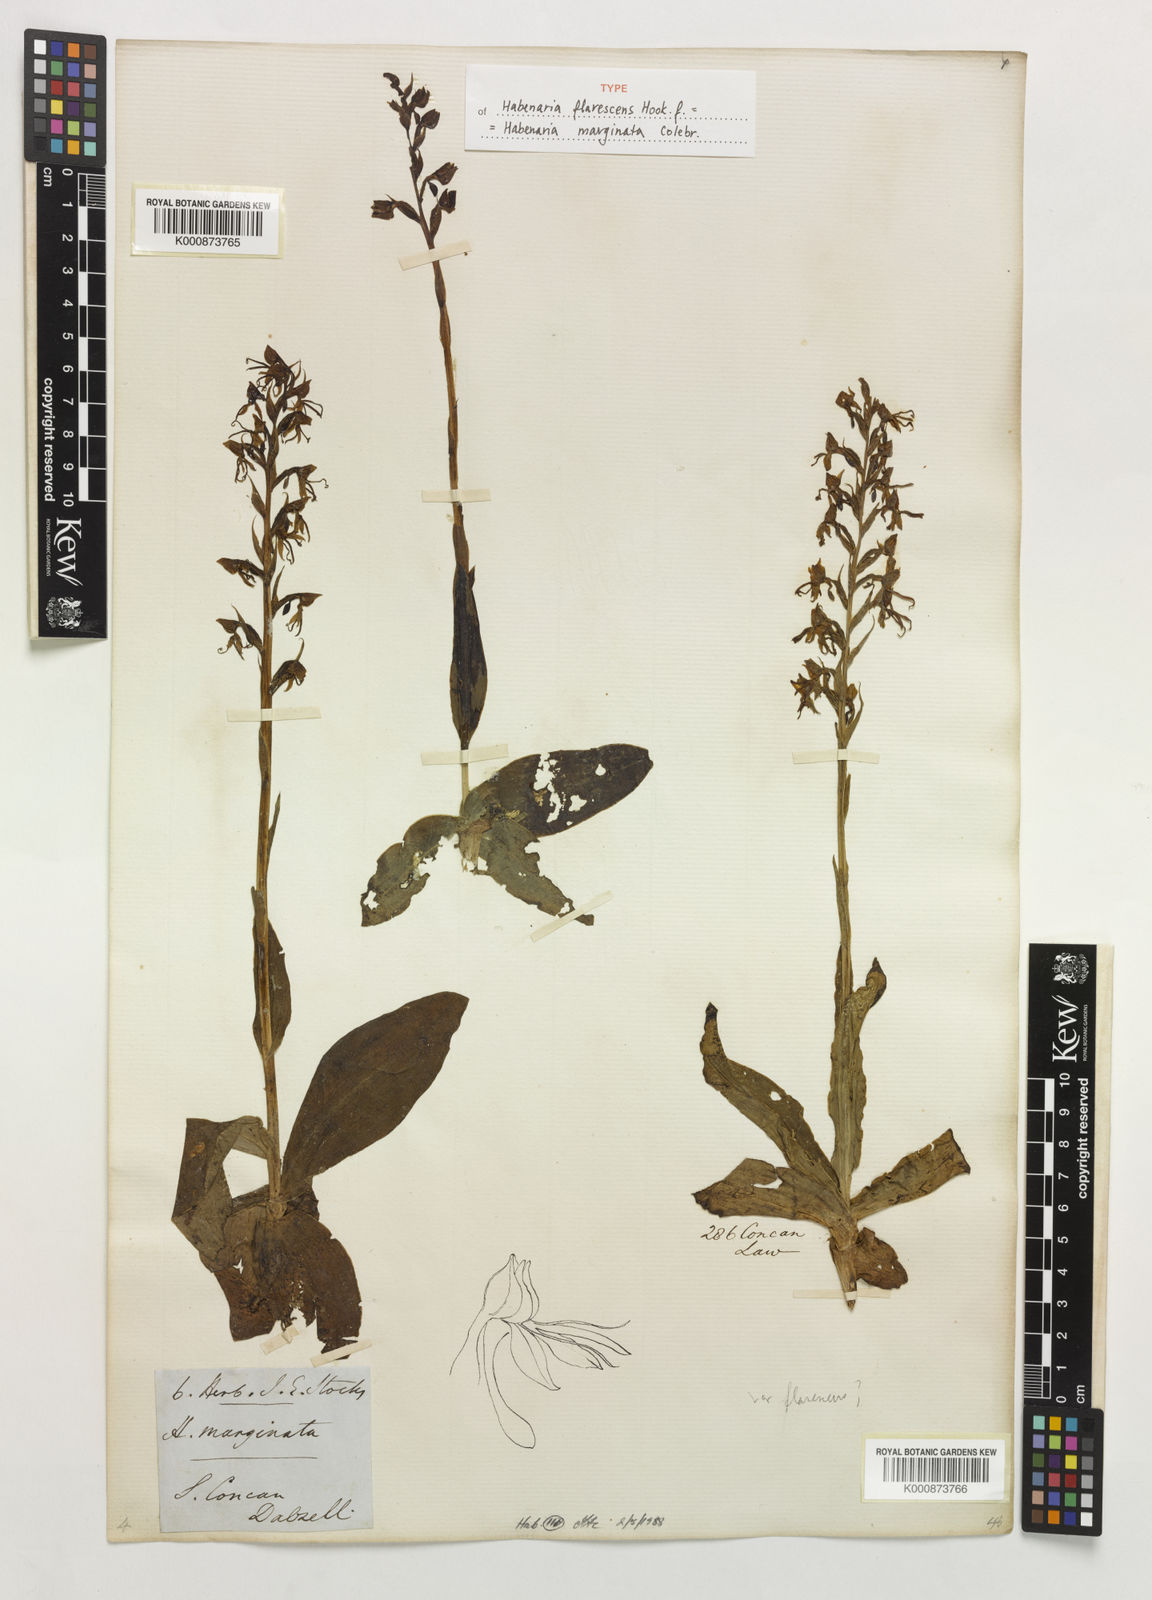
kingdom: Plantae
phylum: Tracheophyta
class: Liliopsida
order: Asparagales
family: Orchidaceae
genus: Habenaria
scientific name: Habenaria marginata
